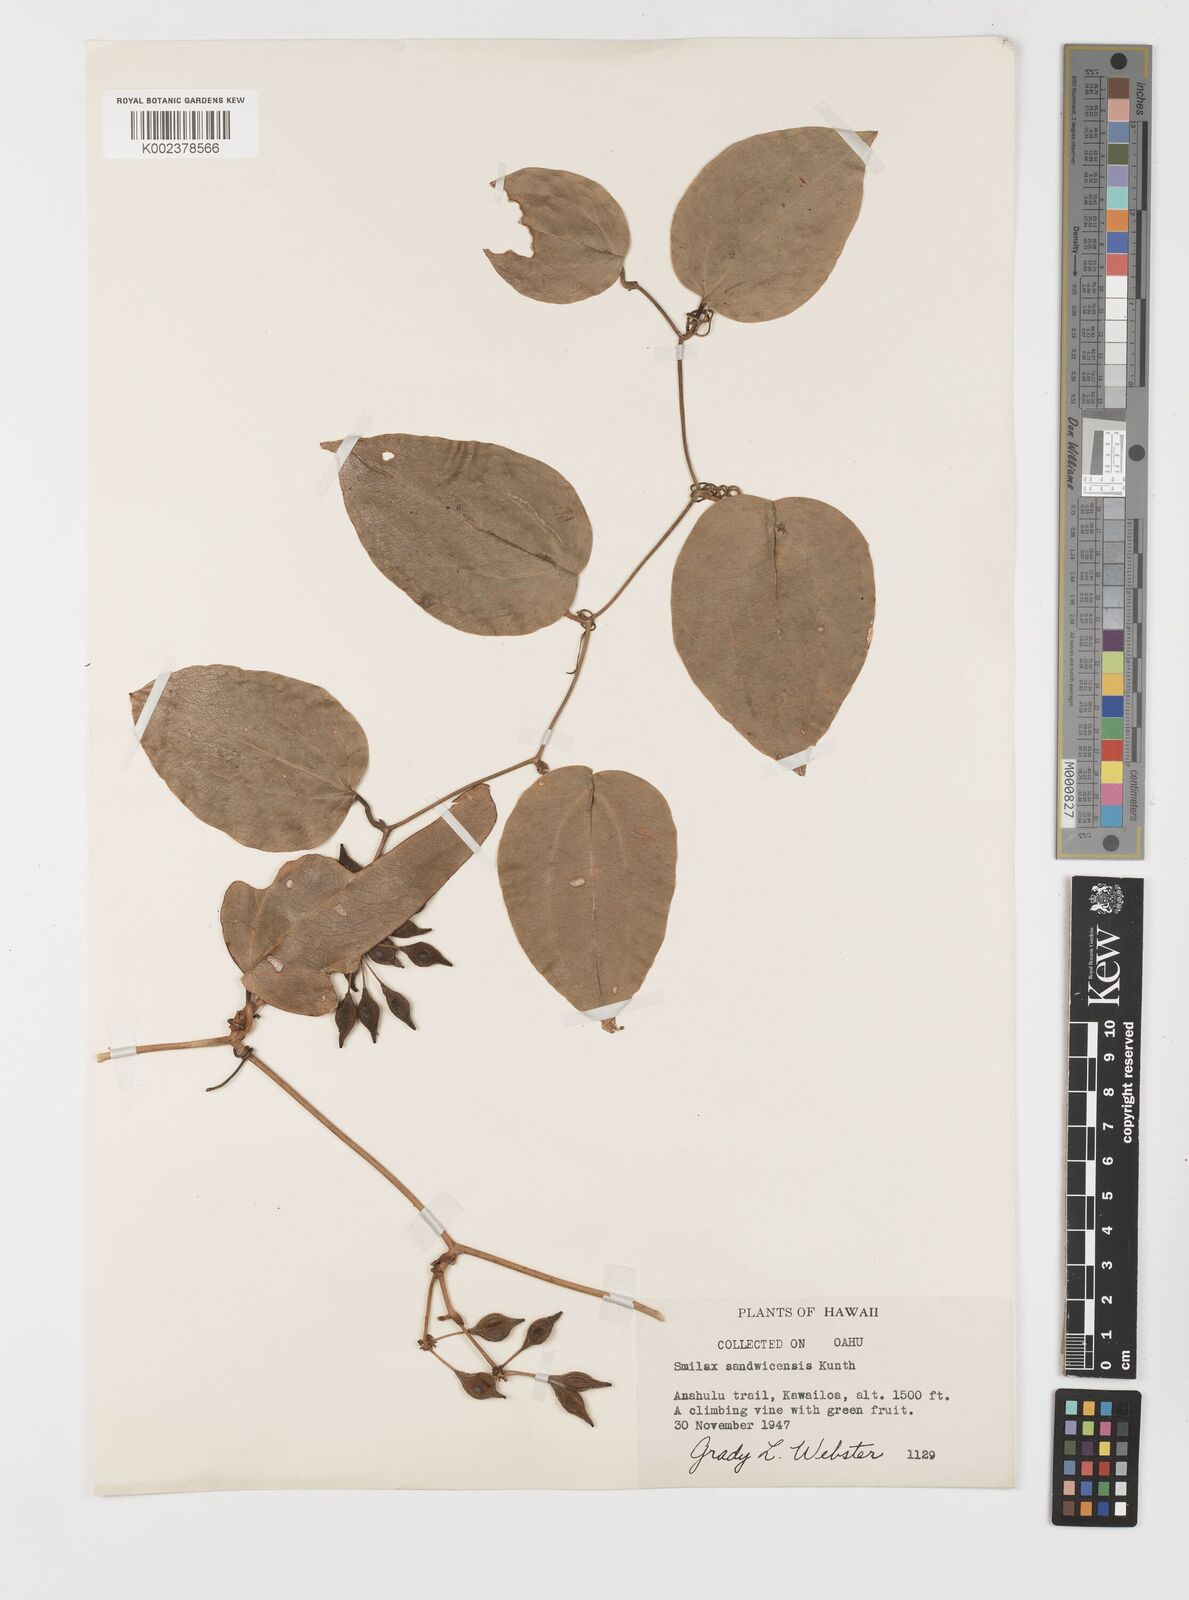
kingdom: Plantae
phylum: Tracheophyta
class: Liliopsida
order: Liliales
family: Smilacaceae
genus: Smilax
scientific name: Smilax melastomifolia
